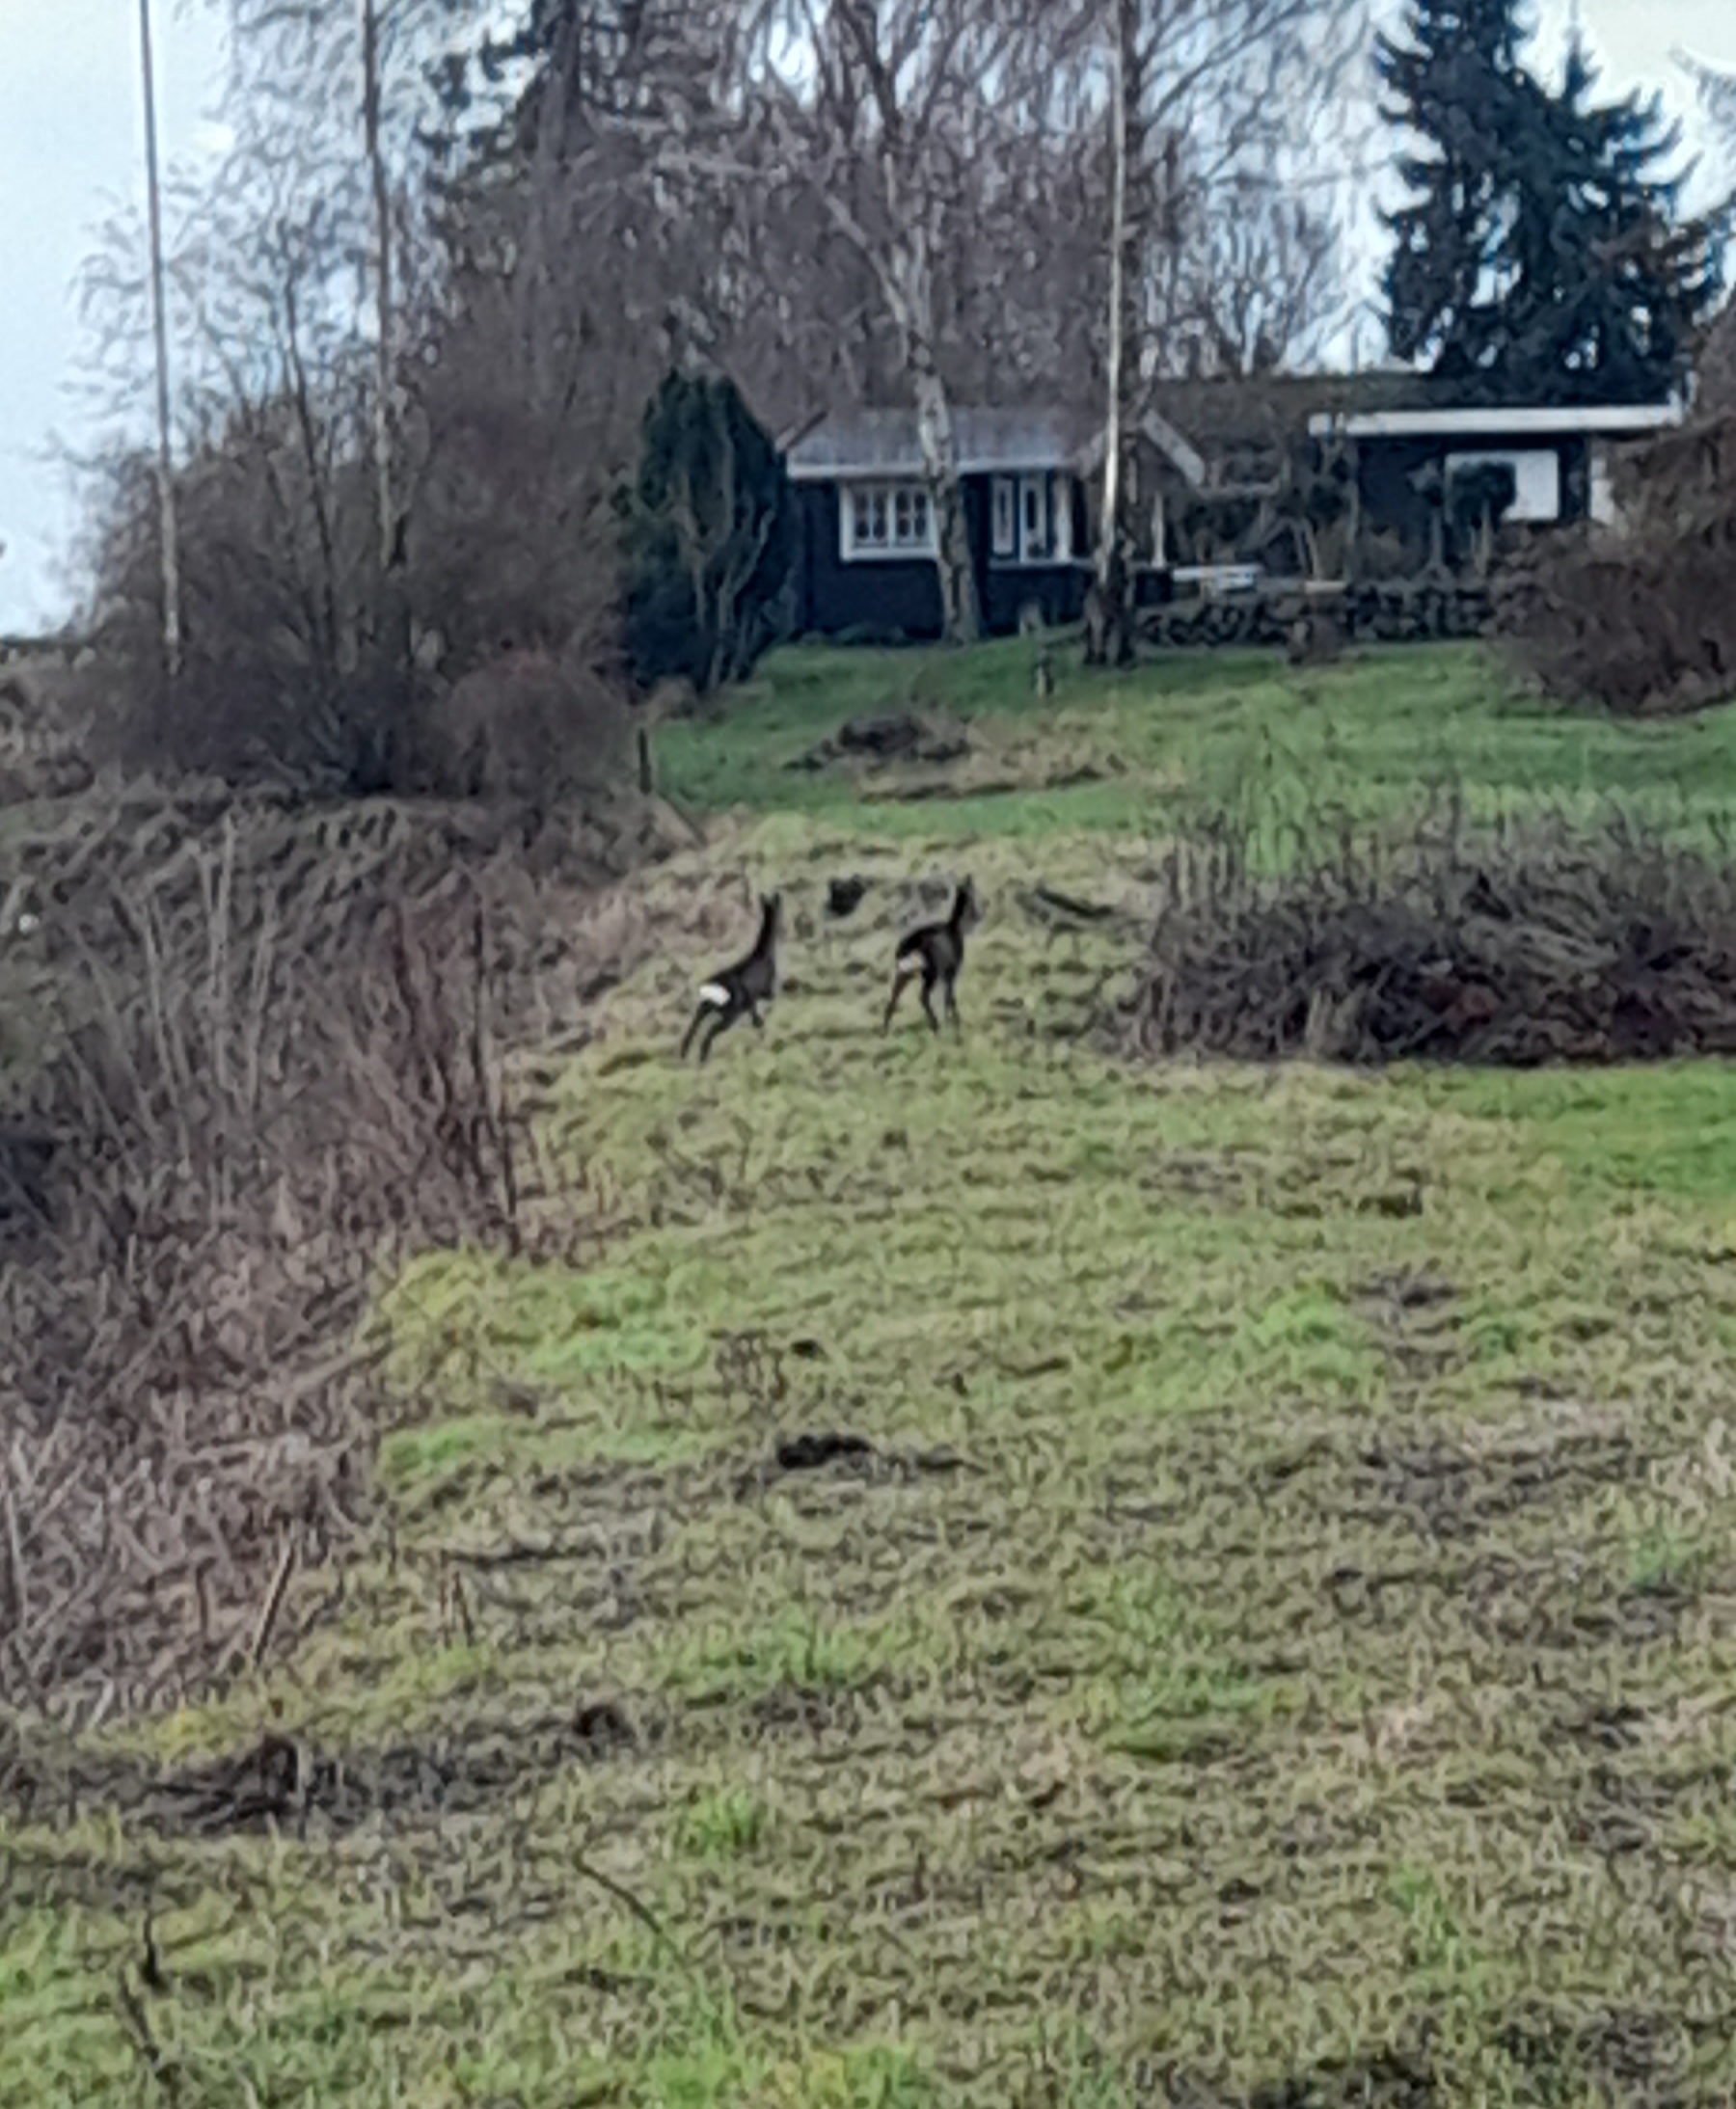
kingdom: Animalia
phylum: Chordata
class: Mammalia
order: Artiodactyla
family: Cervidae
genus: Capreolus
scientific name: Capreolus capreolus
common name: Rådyr
